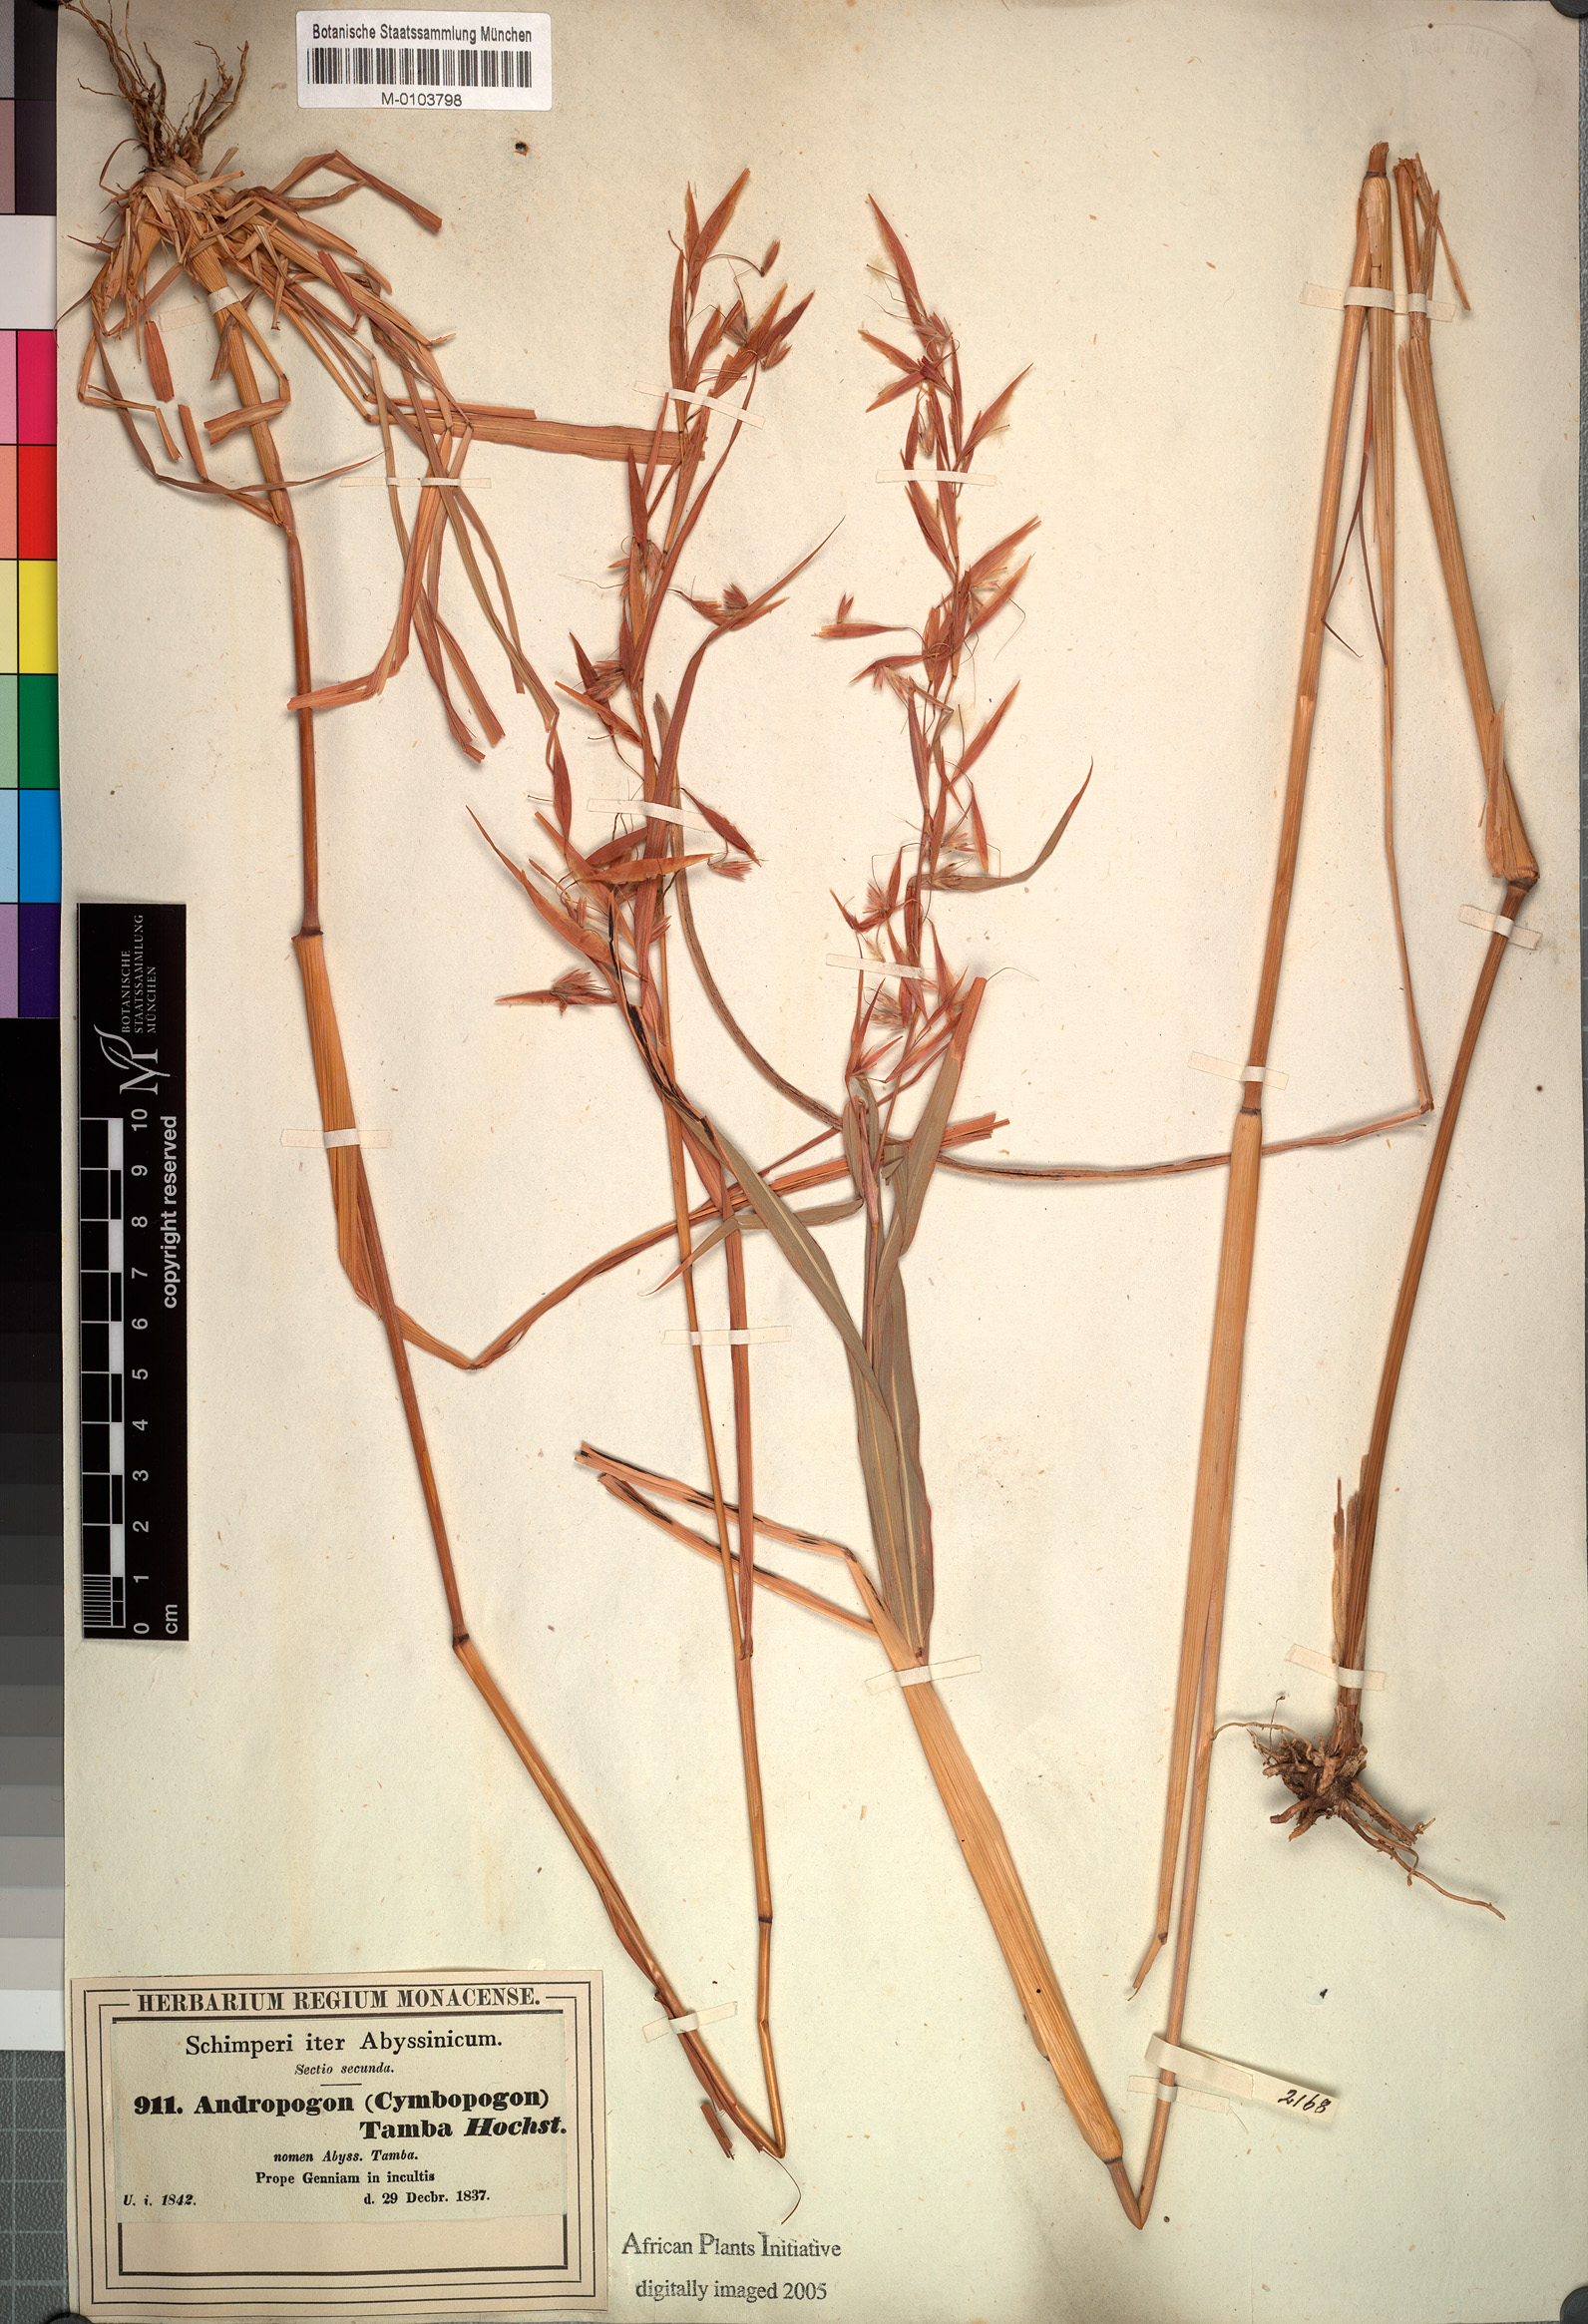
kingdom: Plantae
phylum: Tracheophyta
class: Liliopsida
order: Poales
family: Poaceae
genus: Hyparrhenia
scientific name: Hyparrhenia tamba
